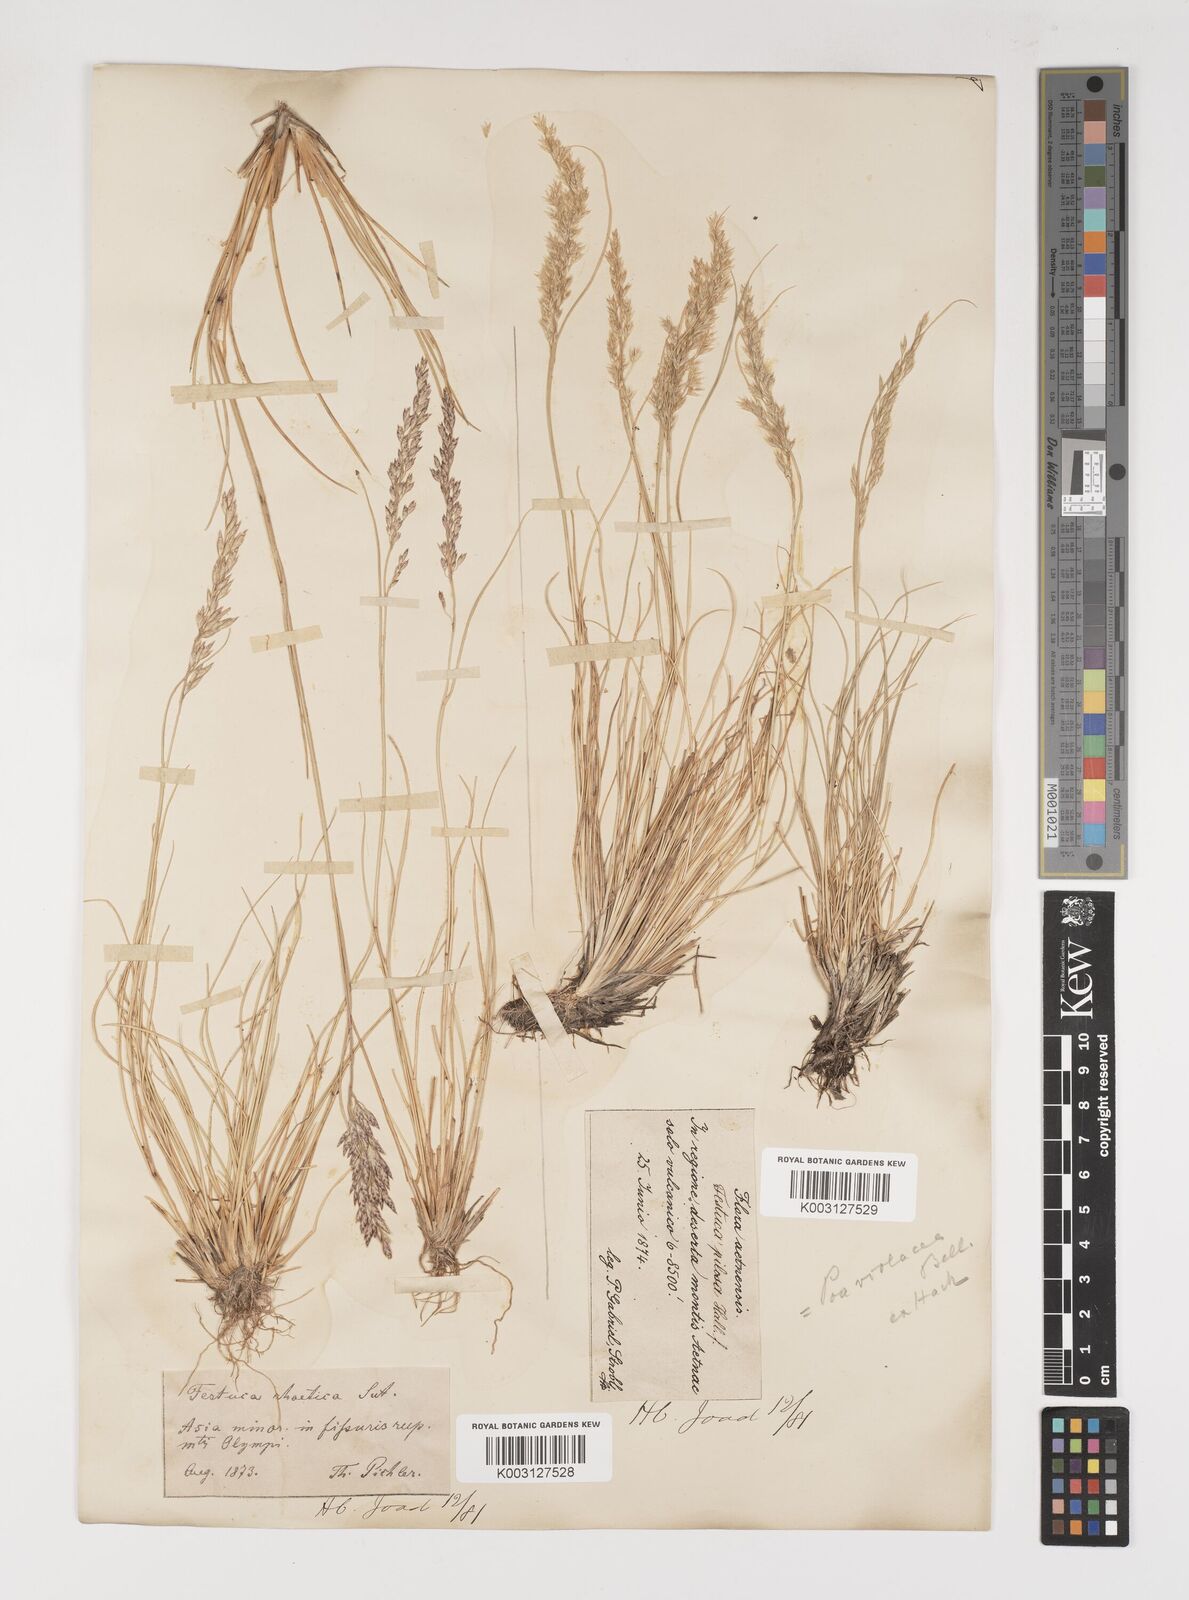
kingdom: Plantae
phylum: Tracheophyta
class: Liliopsida
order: Poales
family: Poaceae
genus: Bellardiochloa
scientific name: Bellardiochloa variegata
